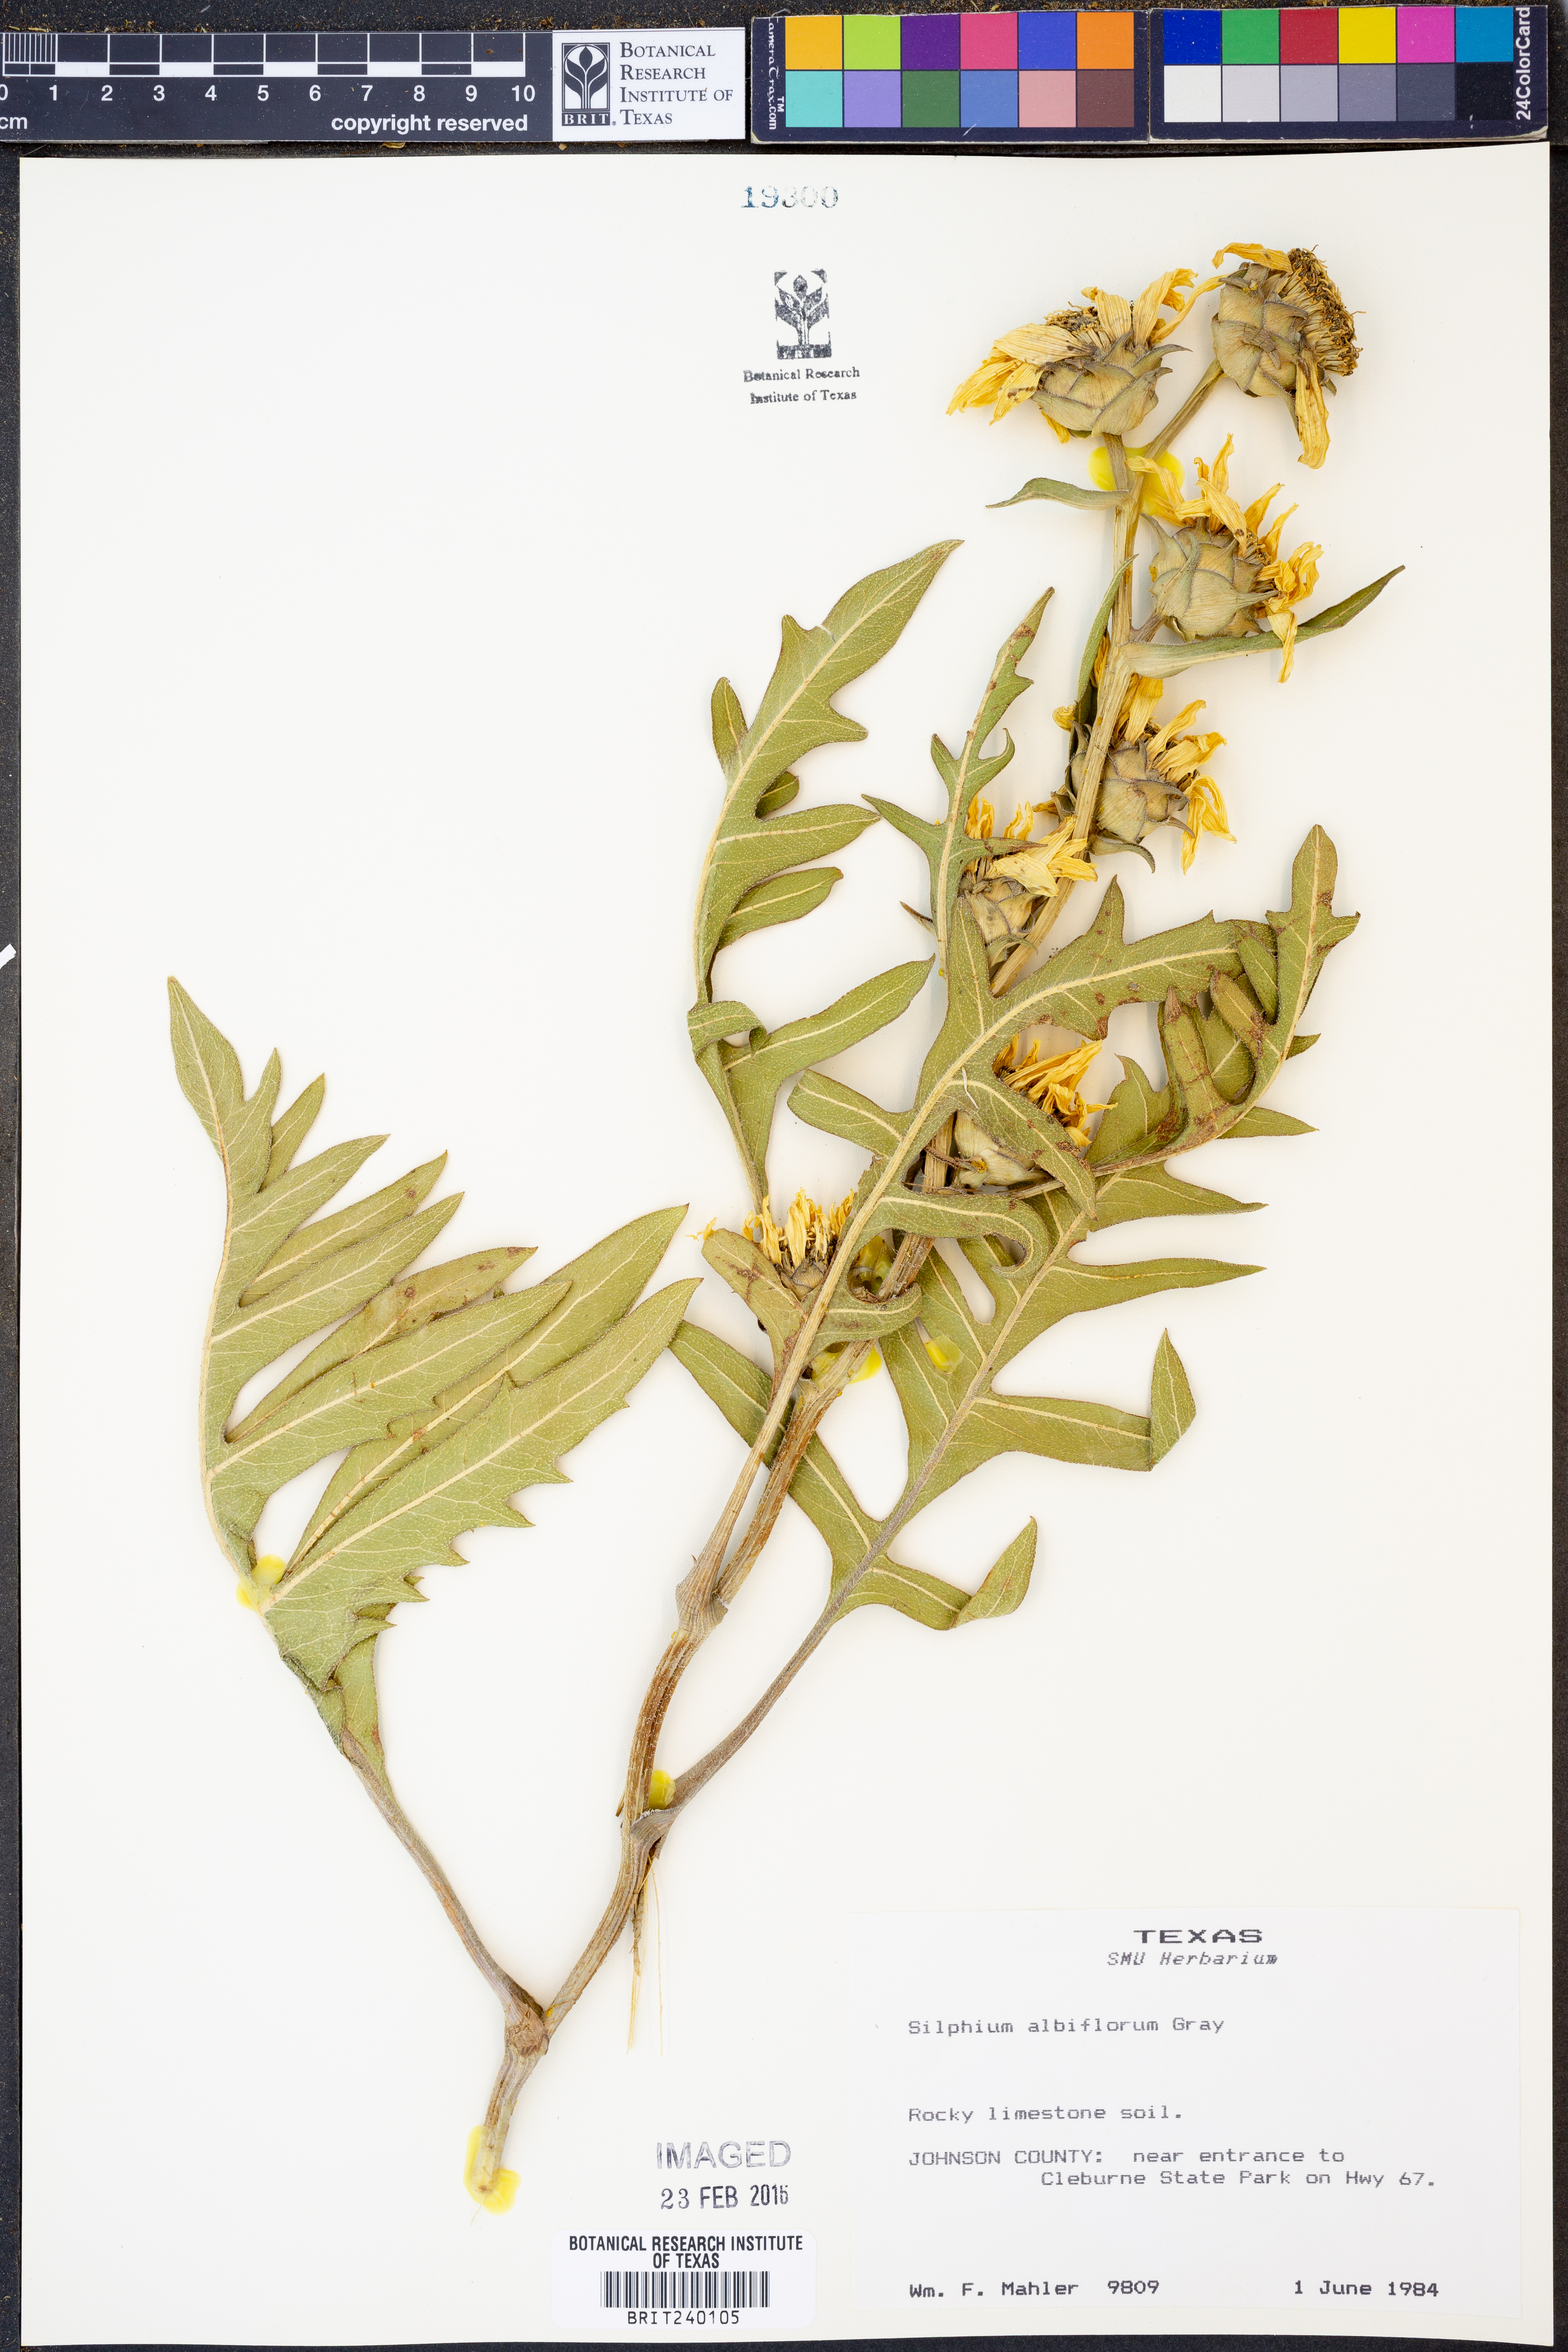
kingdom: Plantae
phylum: Tracheophyta
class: Magnoliopsida
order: Asterales
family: Asteraceae
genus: Silphium
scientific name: Silphium albiflorum
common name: White rosinweed
